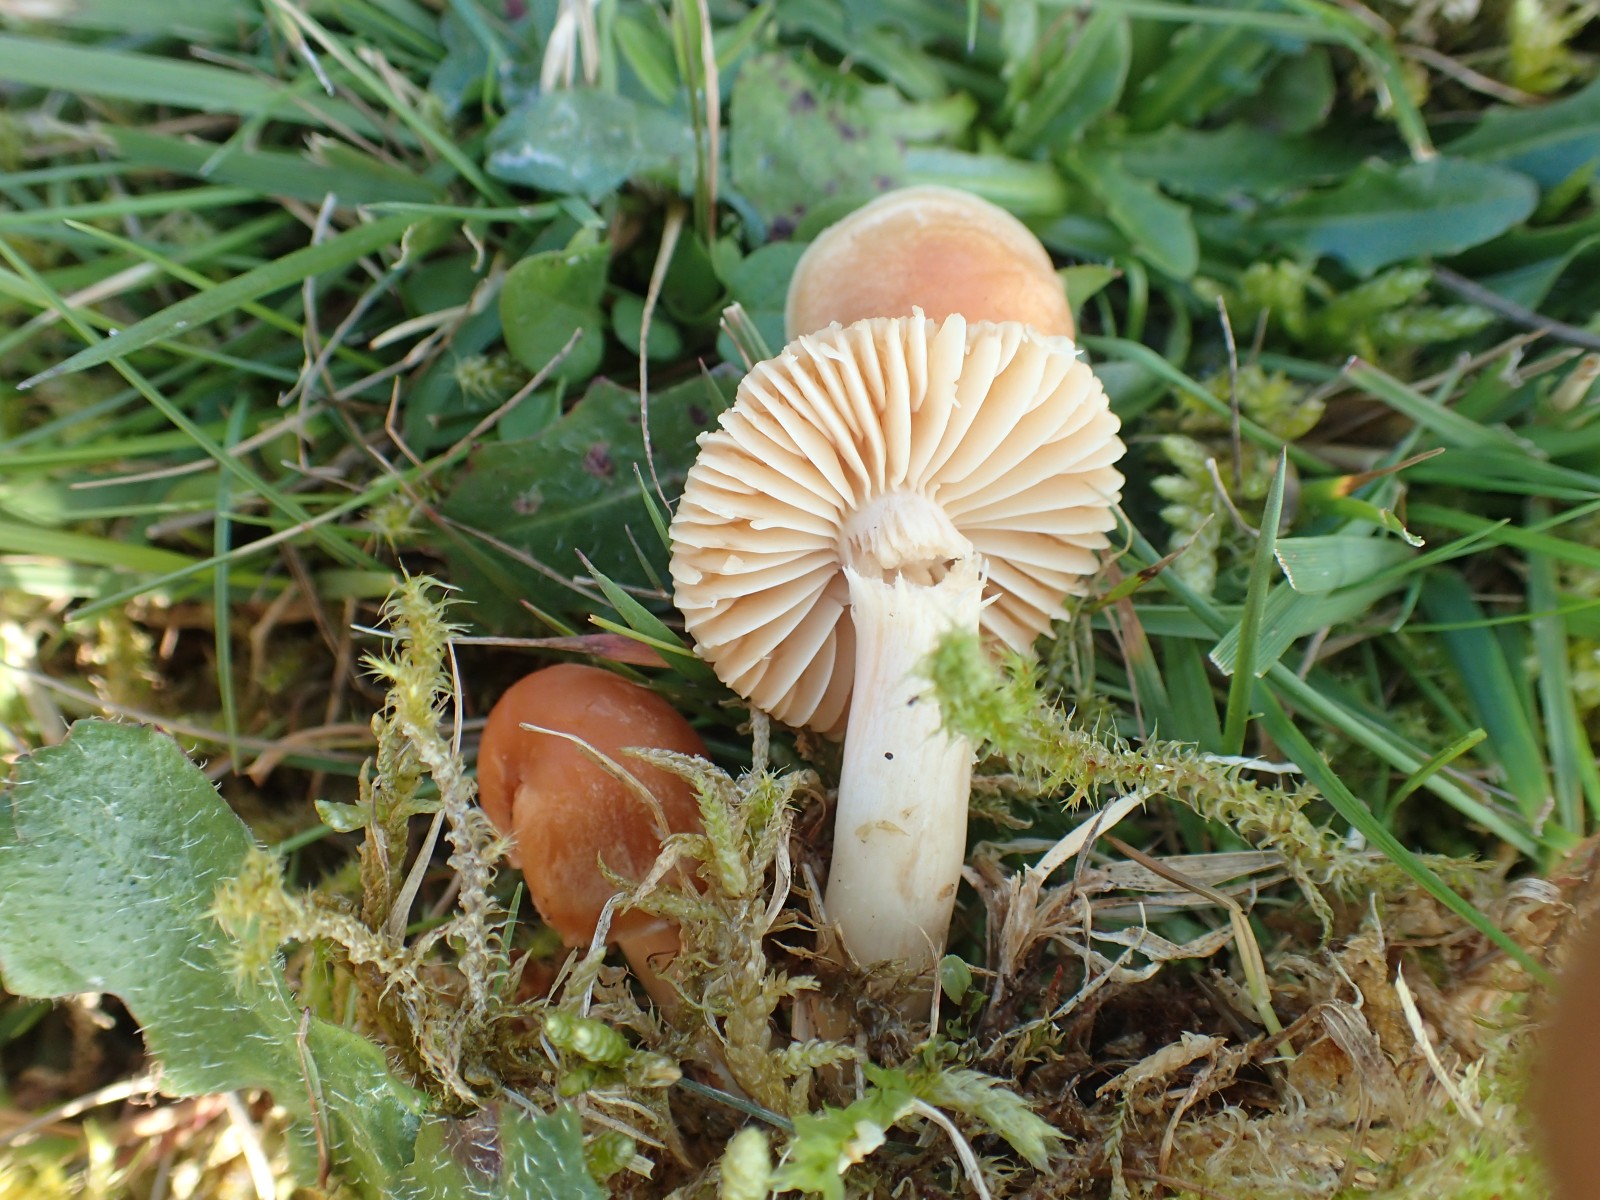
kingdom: Fungi
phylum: Basidiomycota
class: Agaricomycetes
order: Agaricales
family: Hygrophoraceae
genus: Cuphophyllus
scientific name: Cuphophyllus pratensis
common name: eng-vokshat
